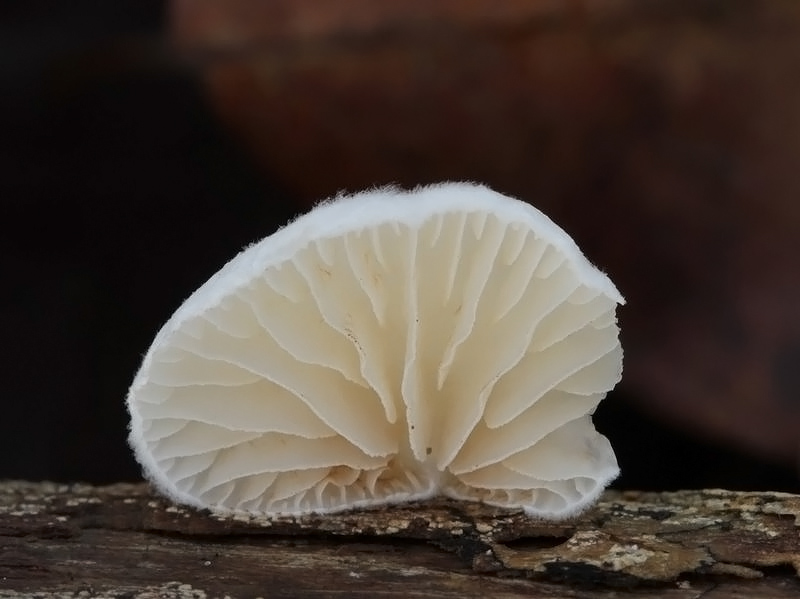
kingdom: Fungi
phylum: Basidiomycota
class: Agaricomycetes
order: Agaricales
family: Crepidotaceae
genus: Crepidotus
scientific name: Crepidotus cesatii
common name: almindelig muslingesvamp
